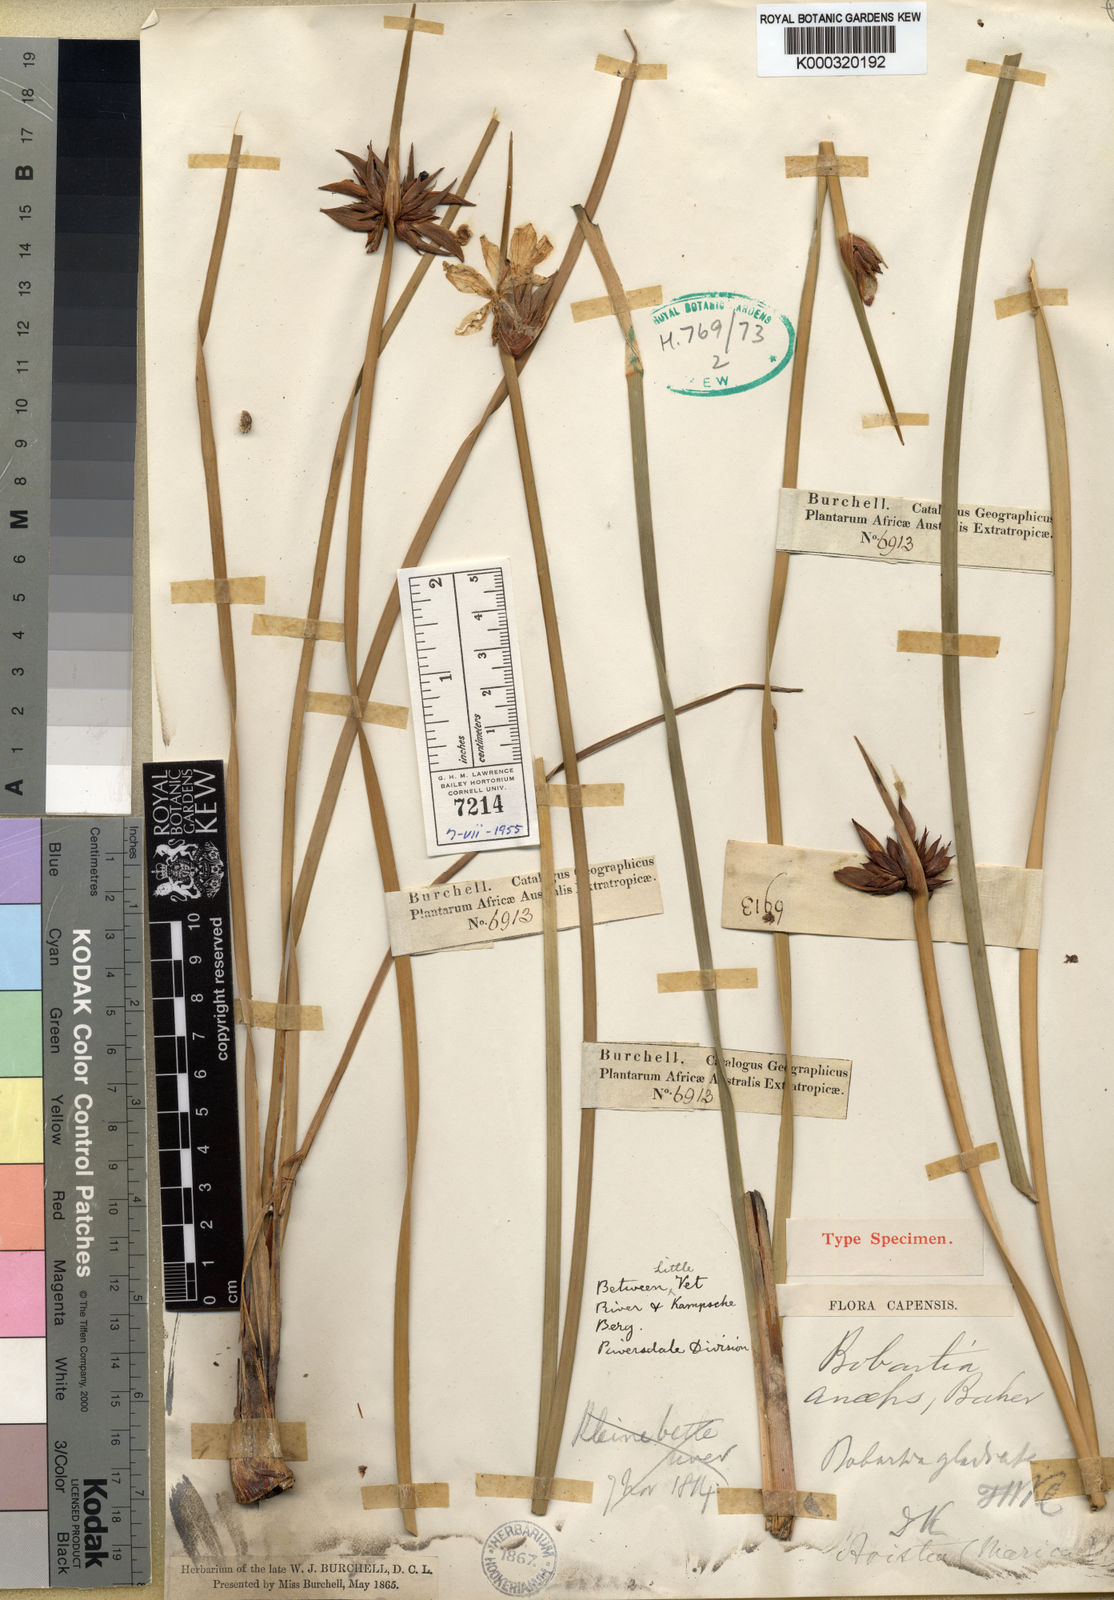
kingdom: Plantae
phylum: Tracheophyta
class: Liliopsida
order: Asparagales
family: Iridaceae
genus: Bobartia
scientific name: Bobartia macrospatha
